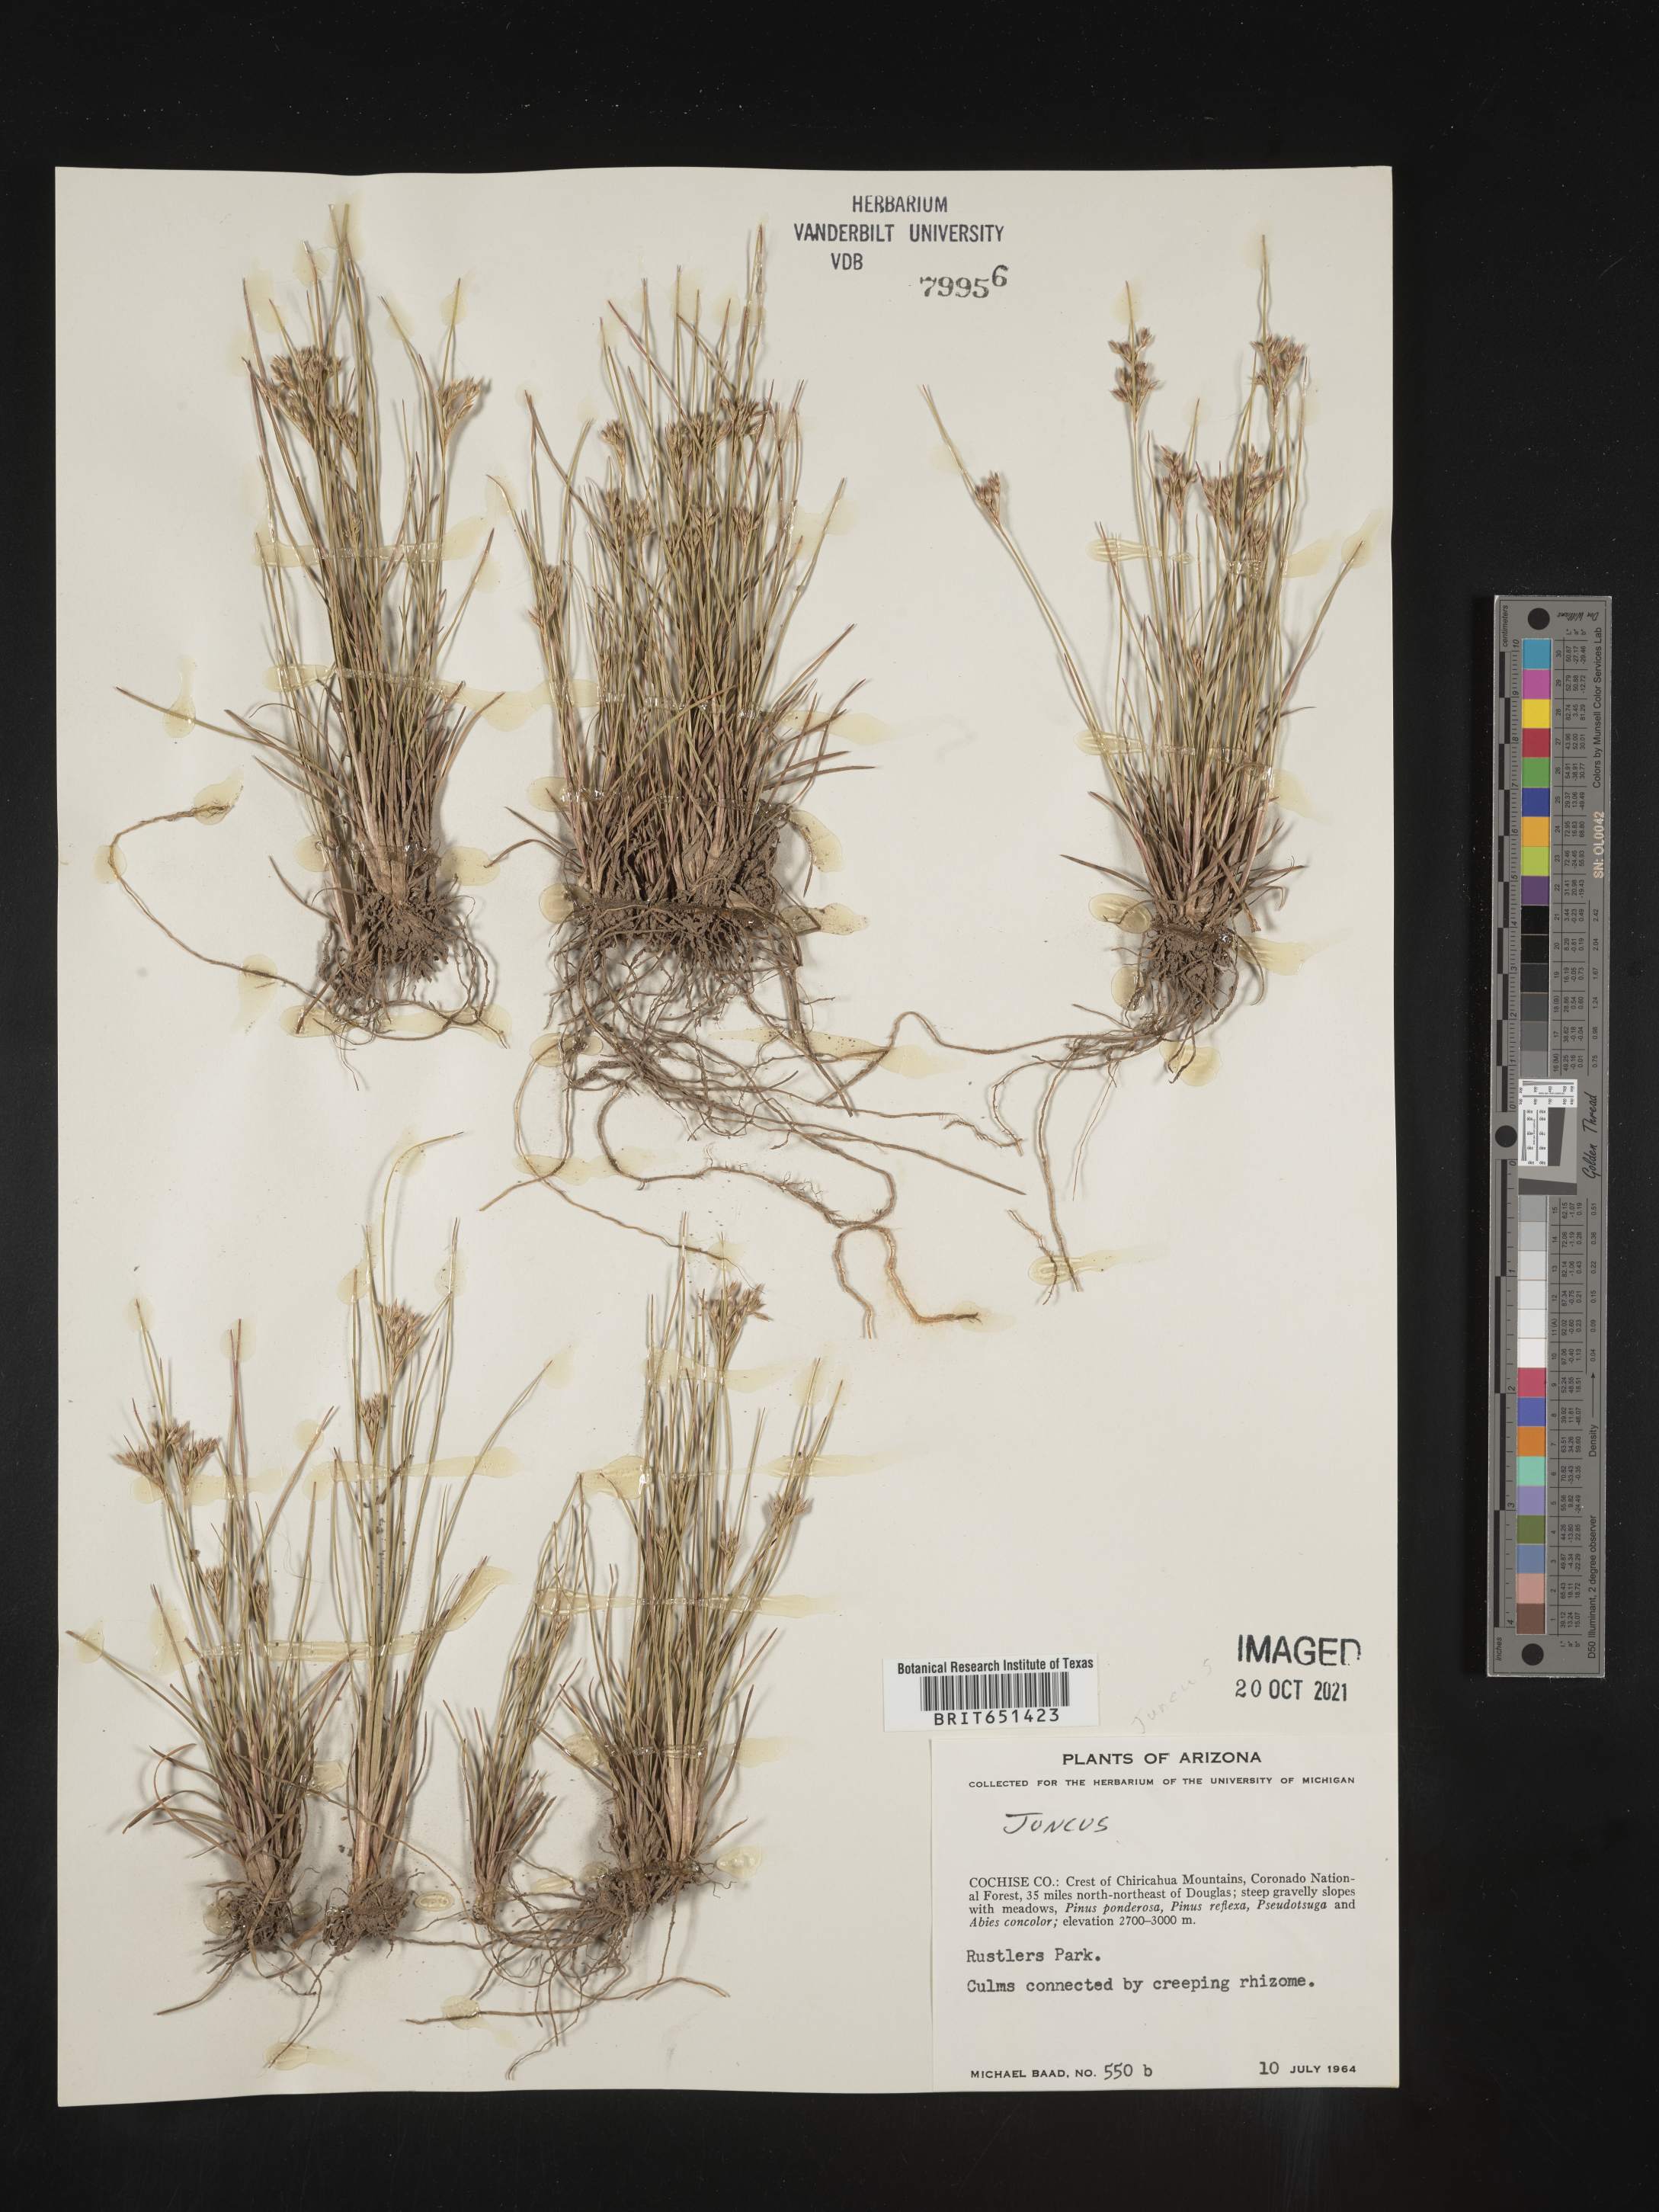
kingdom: Plantae
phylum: Tracheophyta
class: Liliopsida
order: Poales
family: Juncaceae
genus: Juncus
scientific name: Juncus
